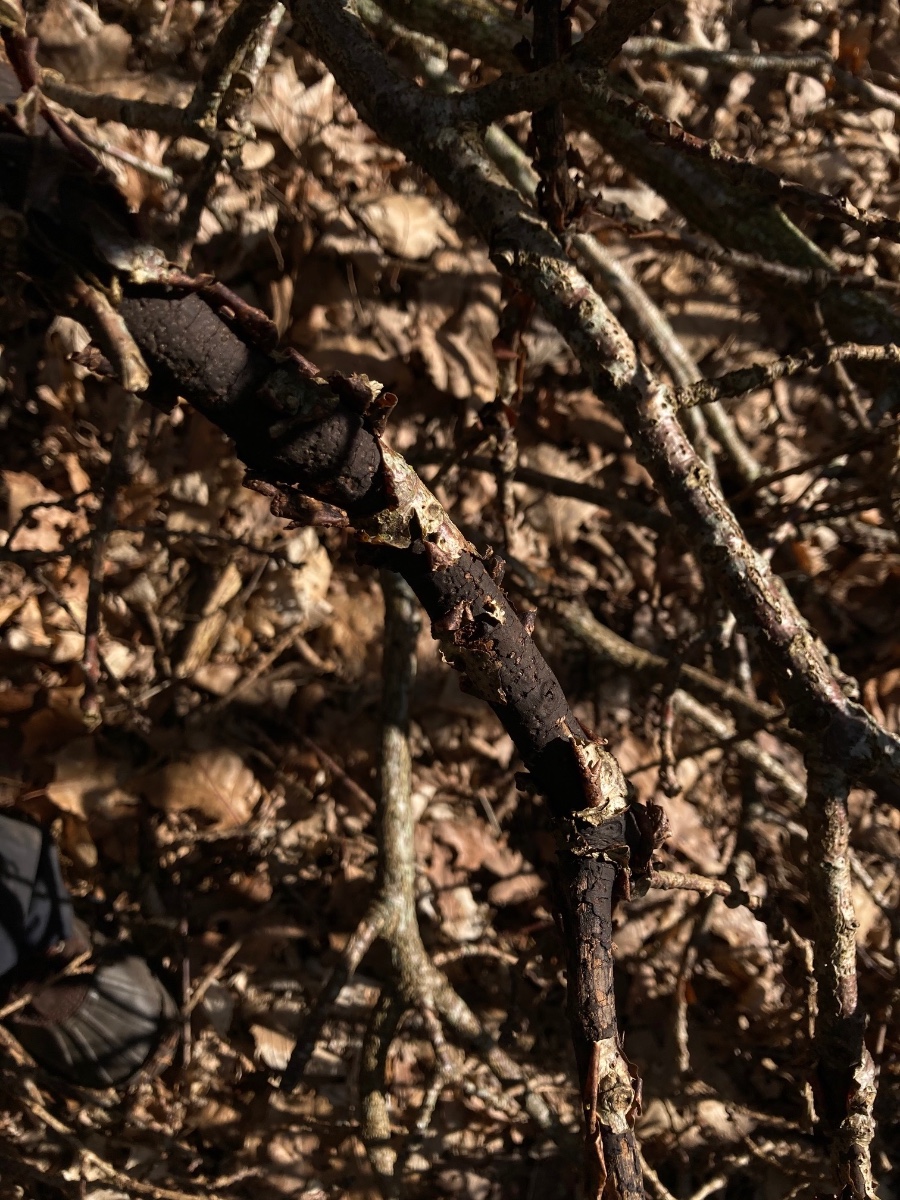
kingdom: Fungi
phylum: Ascomycota
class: Sordariomycetes
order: Xylariales
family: Diatrypaceae
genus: Diatrype
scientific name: Diatrype stigma
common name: udbredt kulskorpe
